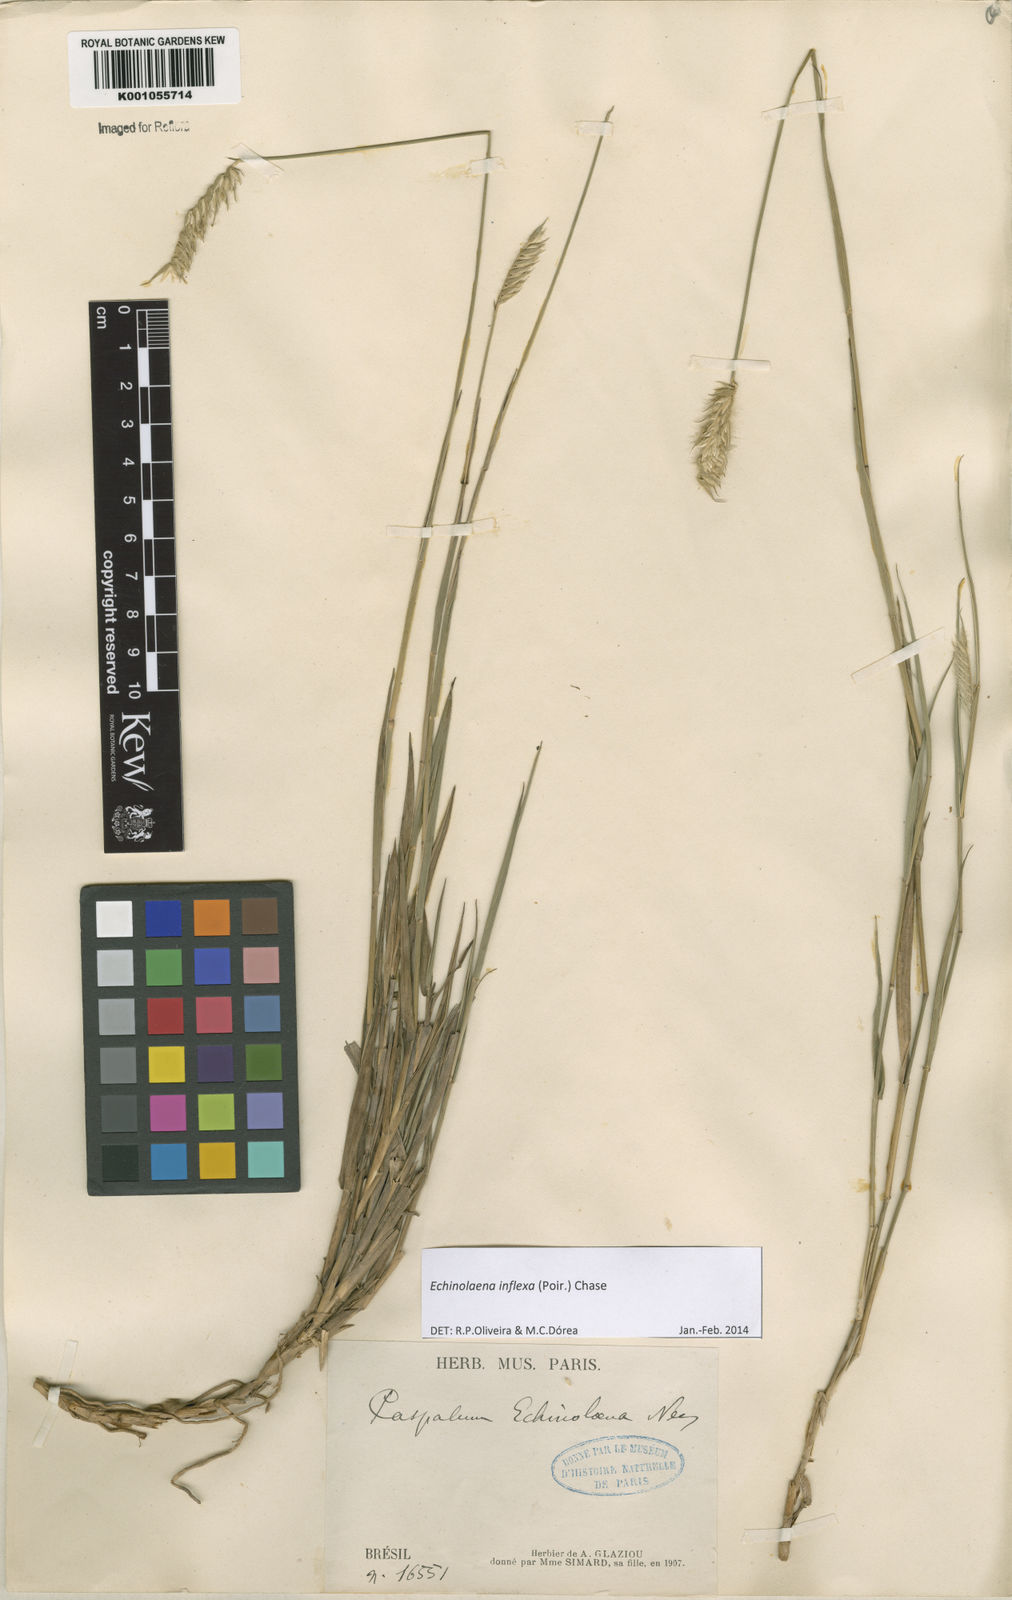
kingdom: Plantae
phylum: Tracheophyta
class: Liliopsida
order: Poales
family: Poaceae
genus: Echinolaena
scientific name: Echinolaena inflexa
